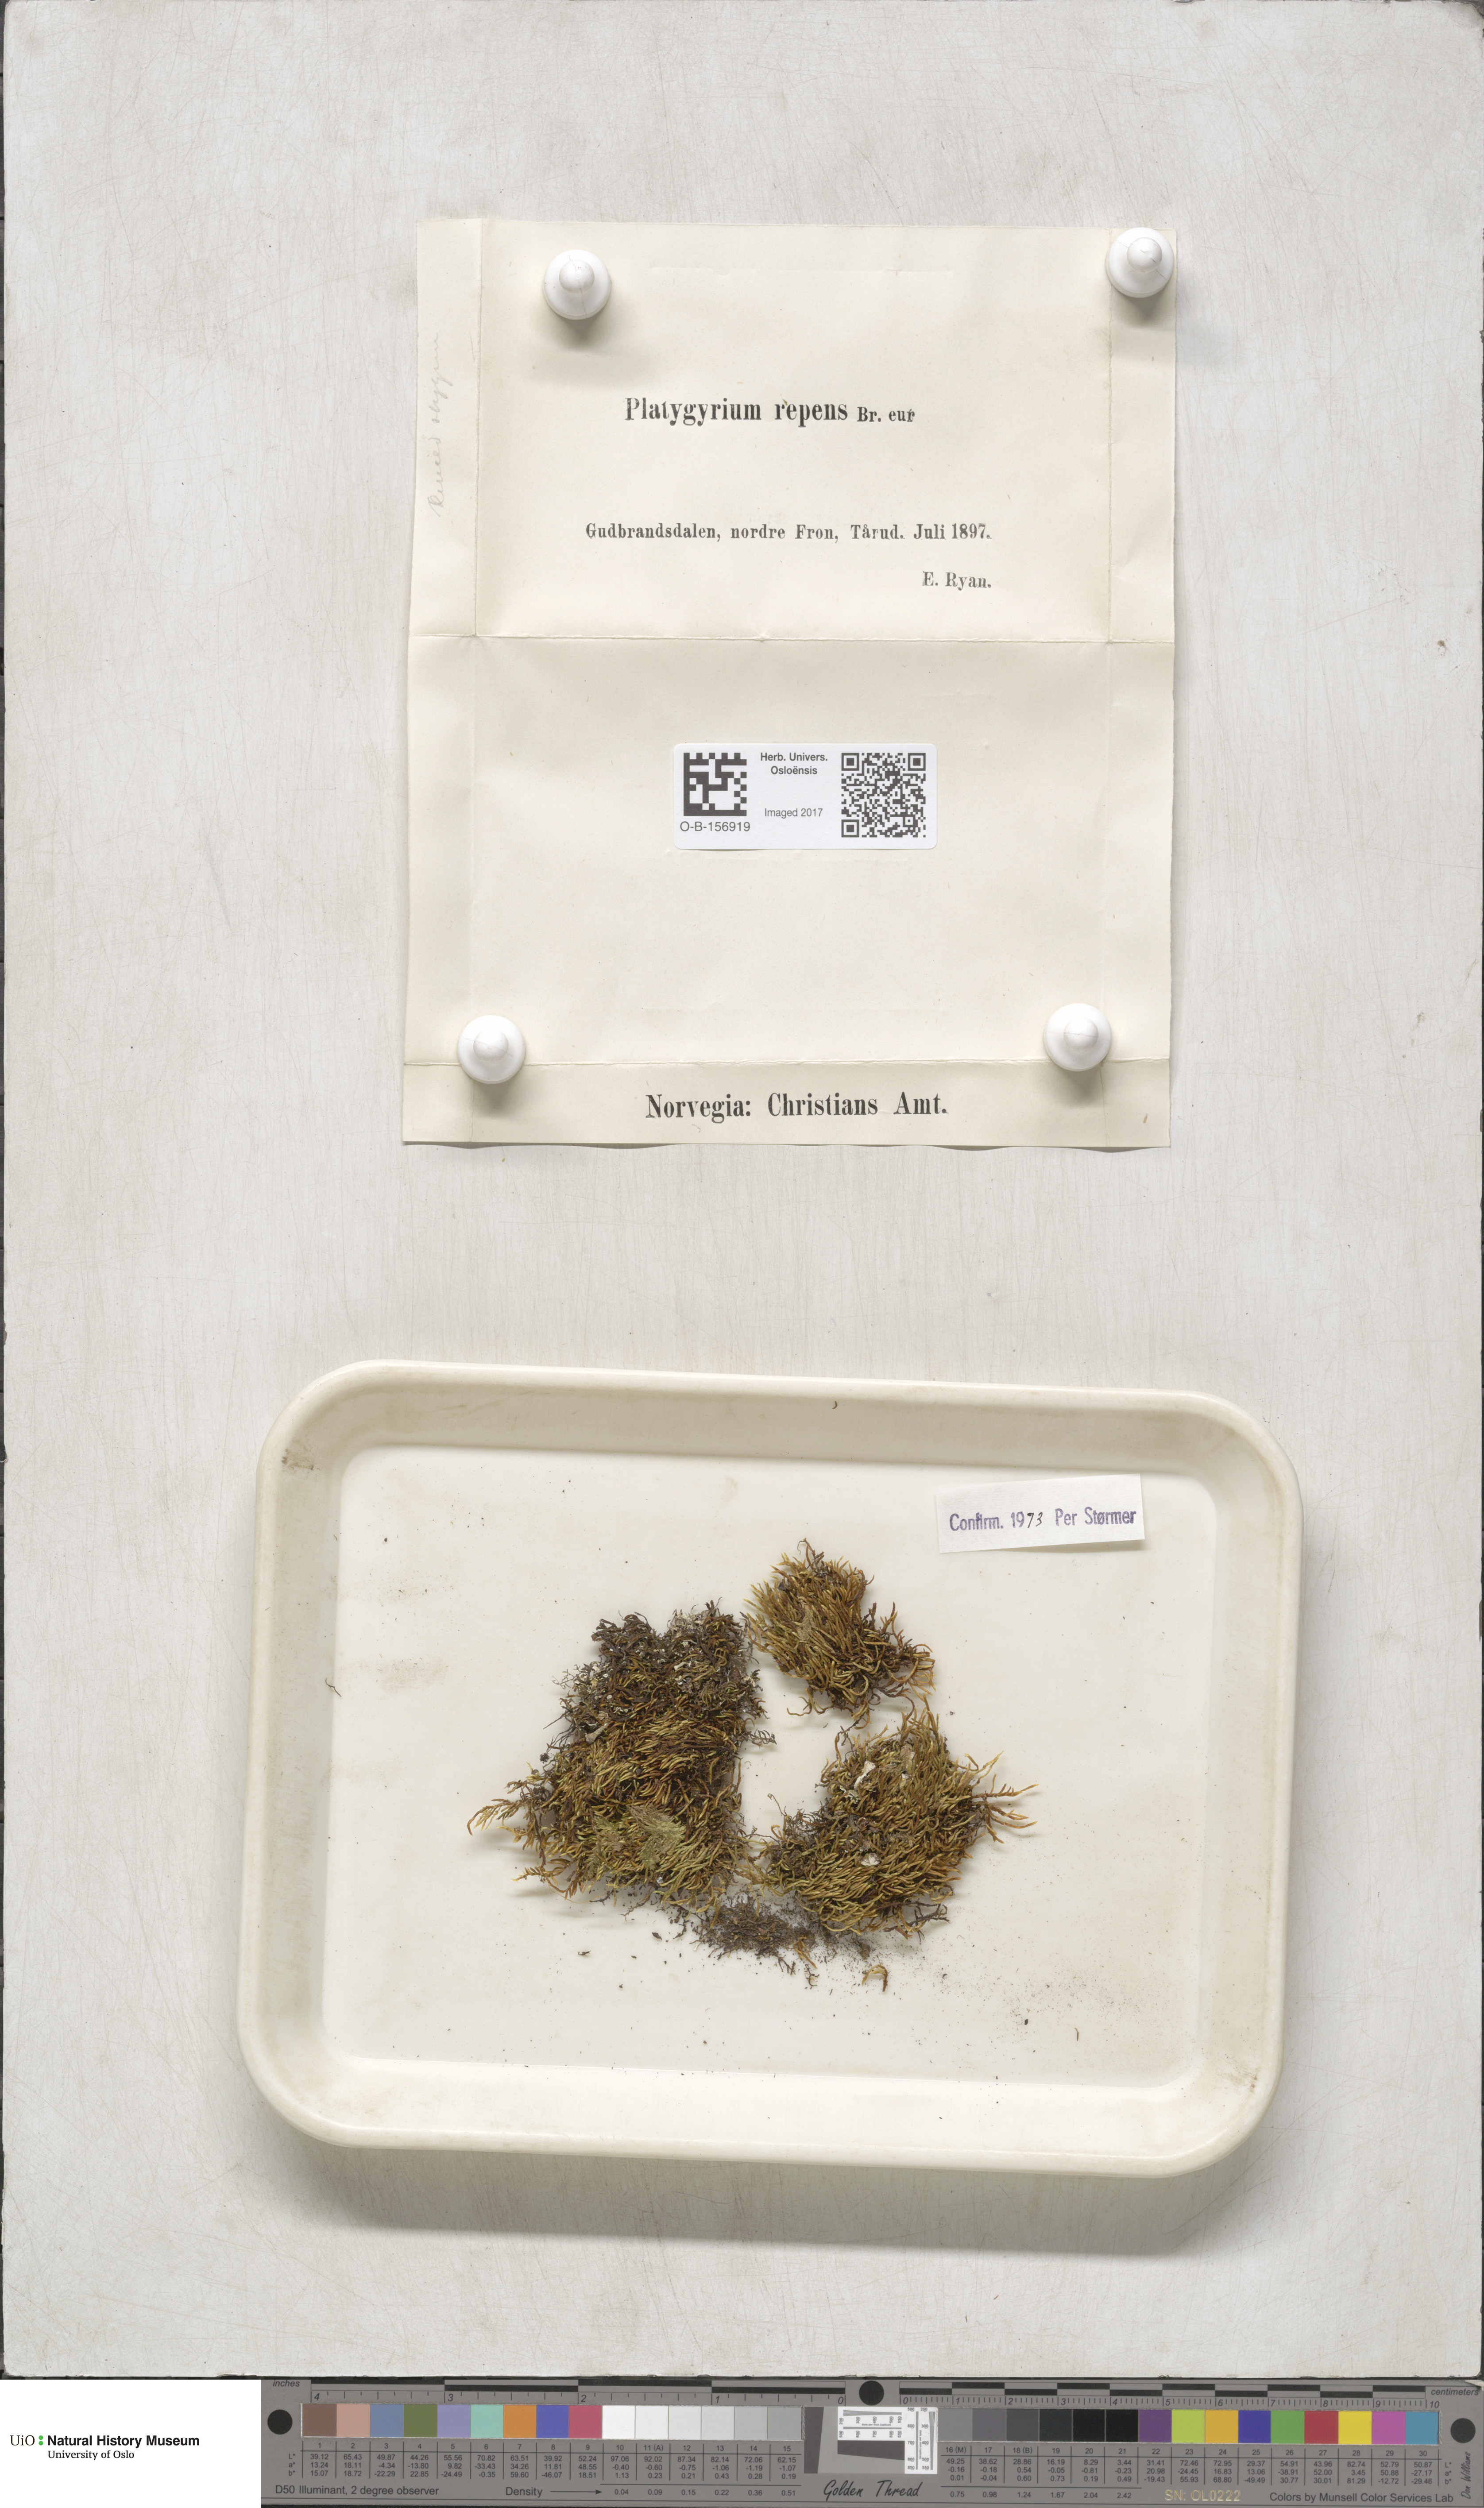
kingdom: Plantae
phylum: Bryophyta
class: Bryopsida
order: Hypnales
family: Pylaisiadelphaceae
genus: Platygyrium
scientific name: Platygyrium repens
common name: Flat-brocade moss
